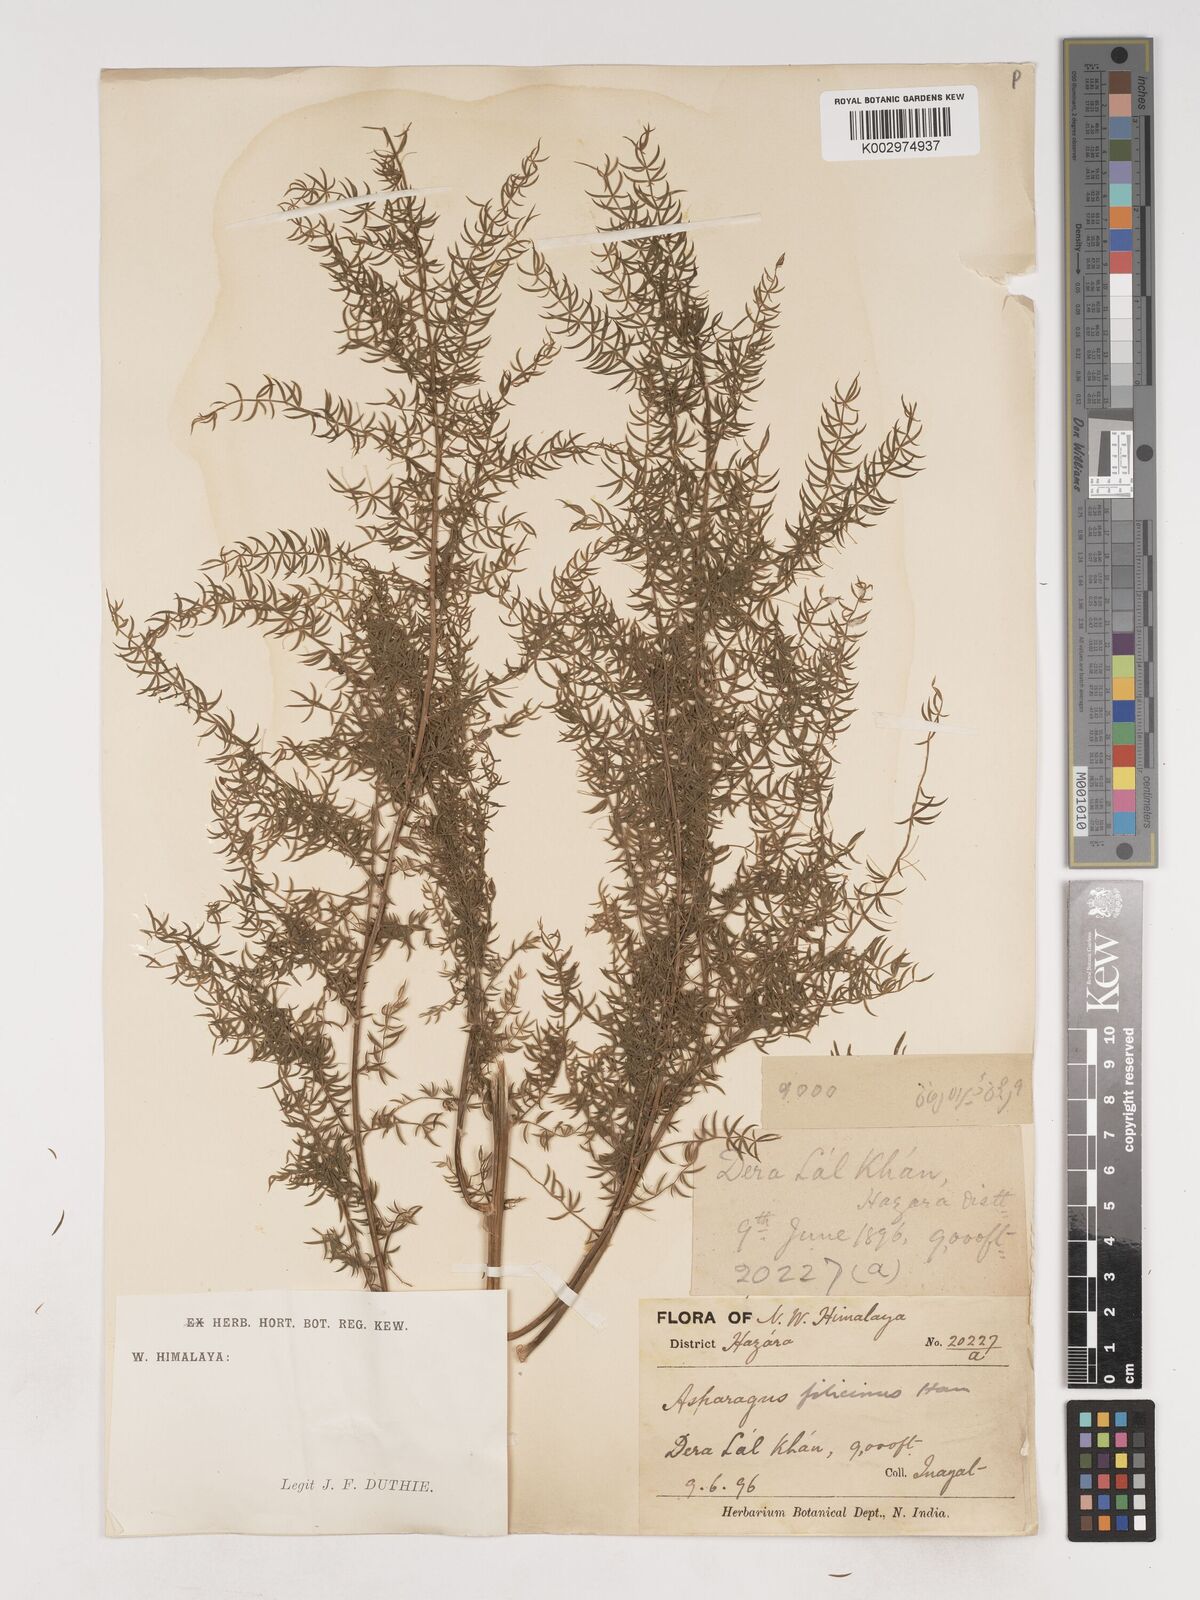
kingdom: Plantae
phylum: Tracheophyta
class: Liliopsida
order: Asparagales
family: Asparagaceae
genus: Asparagus
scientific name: Asparagus filicinus
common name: Fern asparagus
